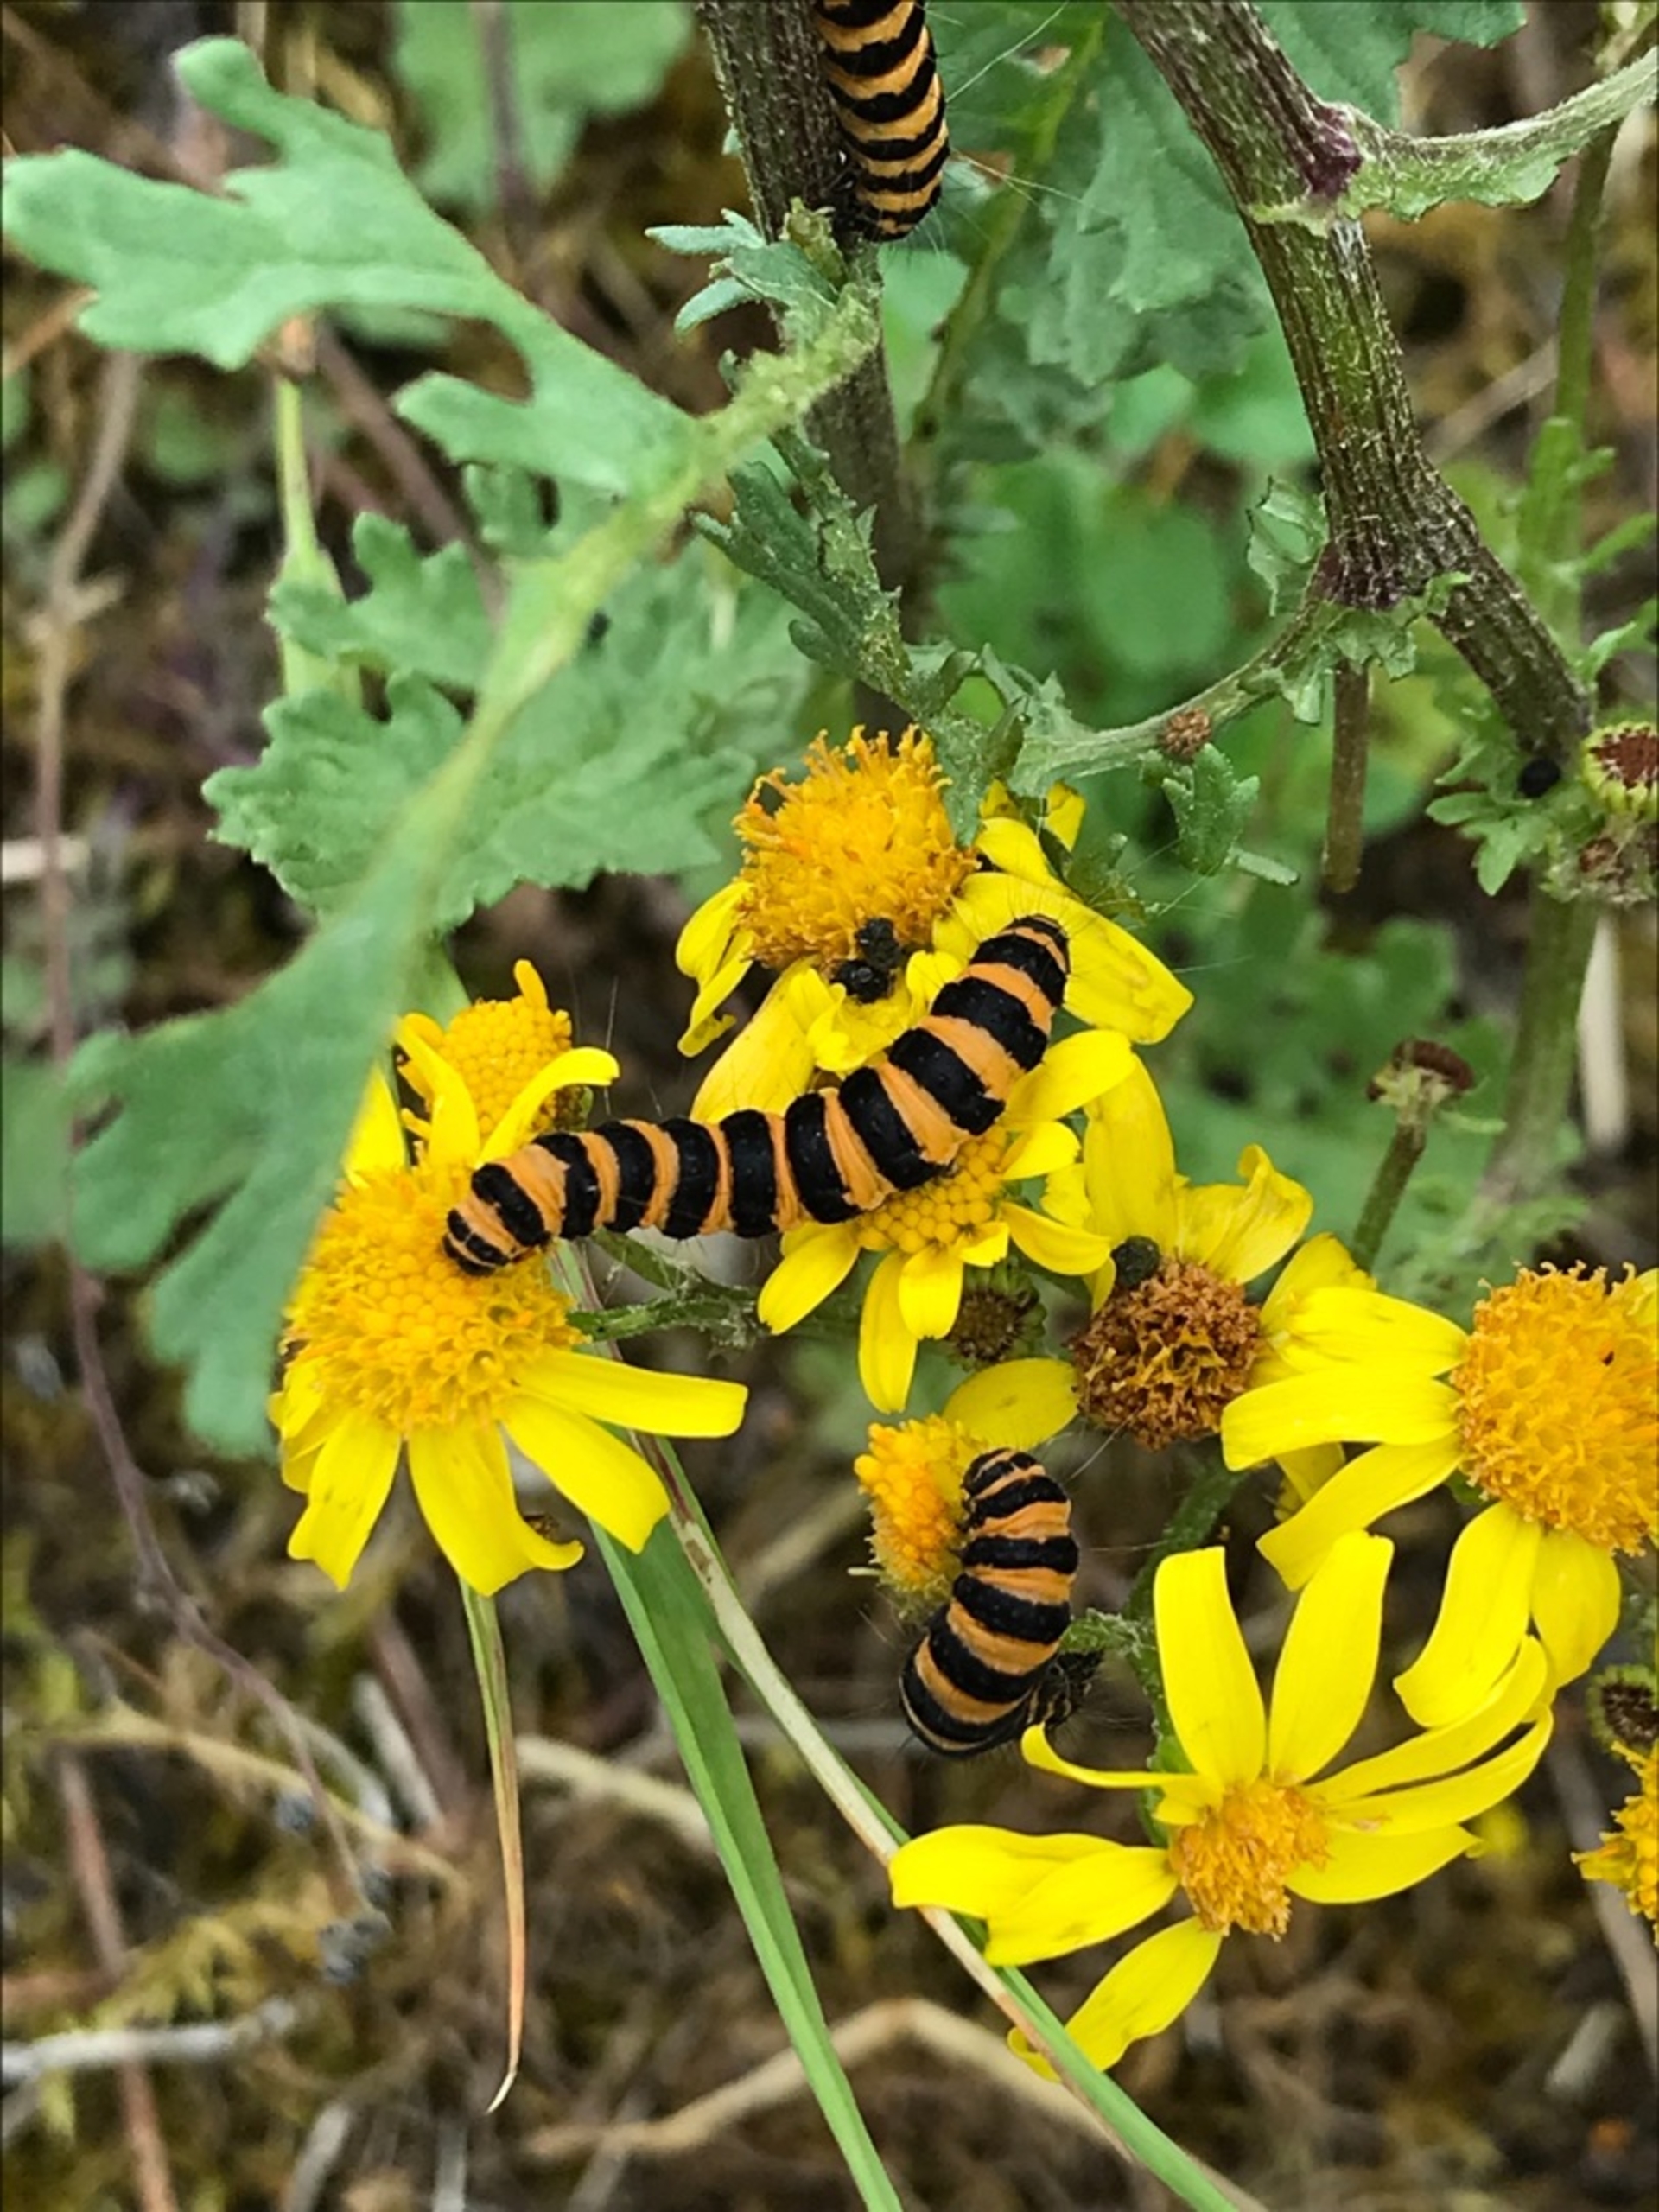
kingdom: Animalia
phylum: Arthropoda
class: Insecta
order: Lepidoptera
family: Erebidae
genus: Tyria
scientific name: Tyria jacobaeae
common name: Blodplet
